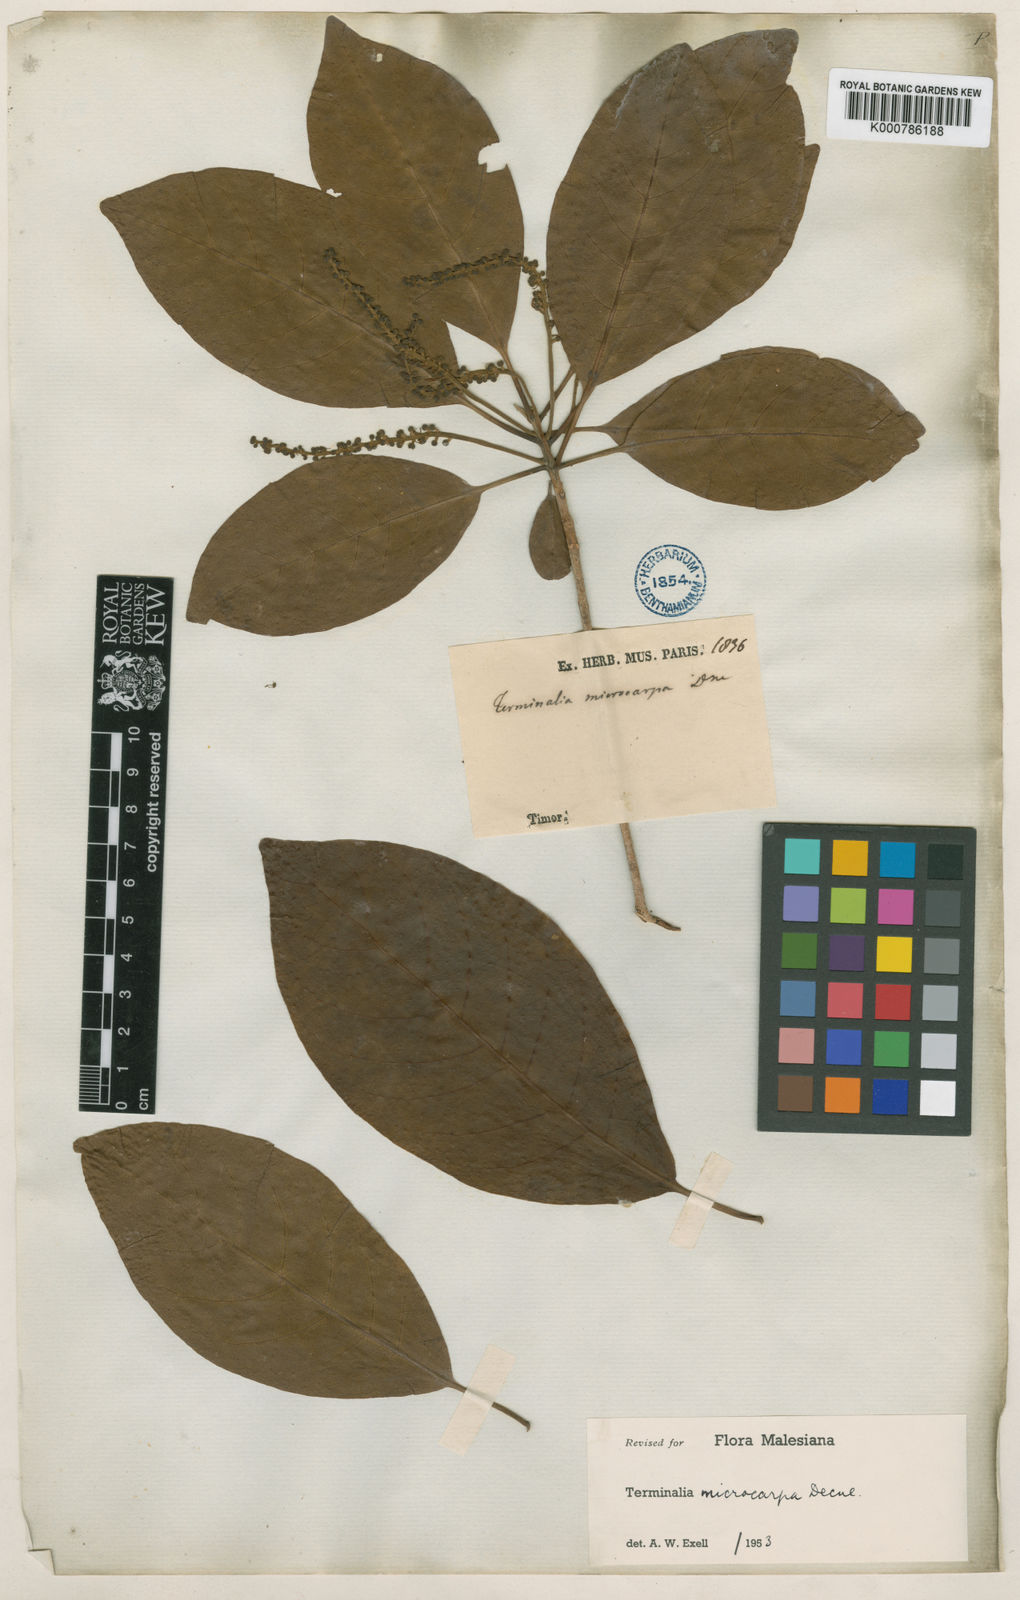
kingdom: Plantae
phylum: Tracheophyta
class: Magnoliopsida
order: Myrtales
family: Combretaceae
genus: Terminalia
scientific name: Terminalia microcarpa
